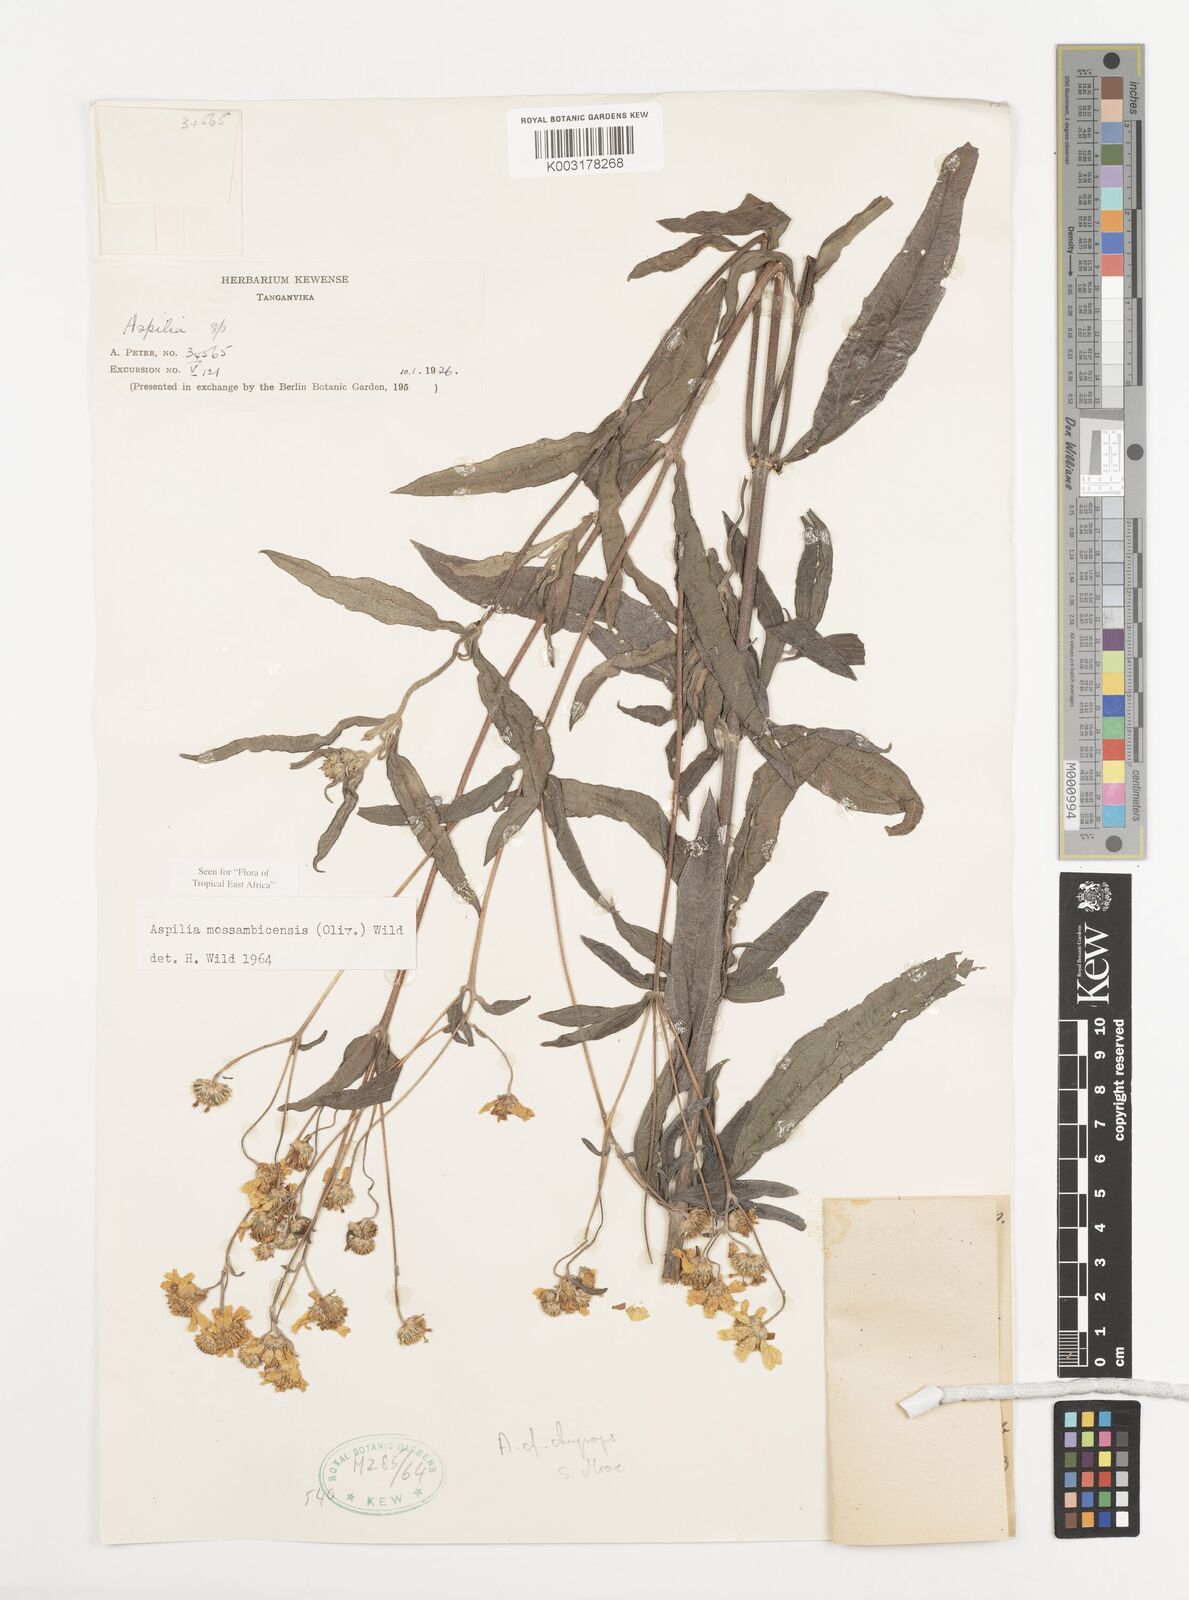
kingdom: Plantae
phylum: Tracheophyta
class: Magnoliopsida
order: Asterales
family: Asteraceae
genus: Aspilia
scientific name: Aspilia mossambicensis
